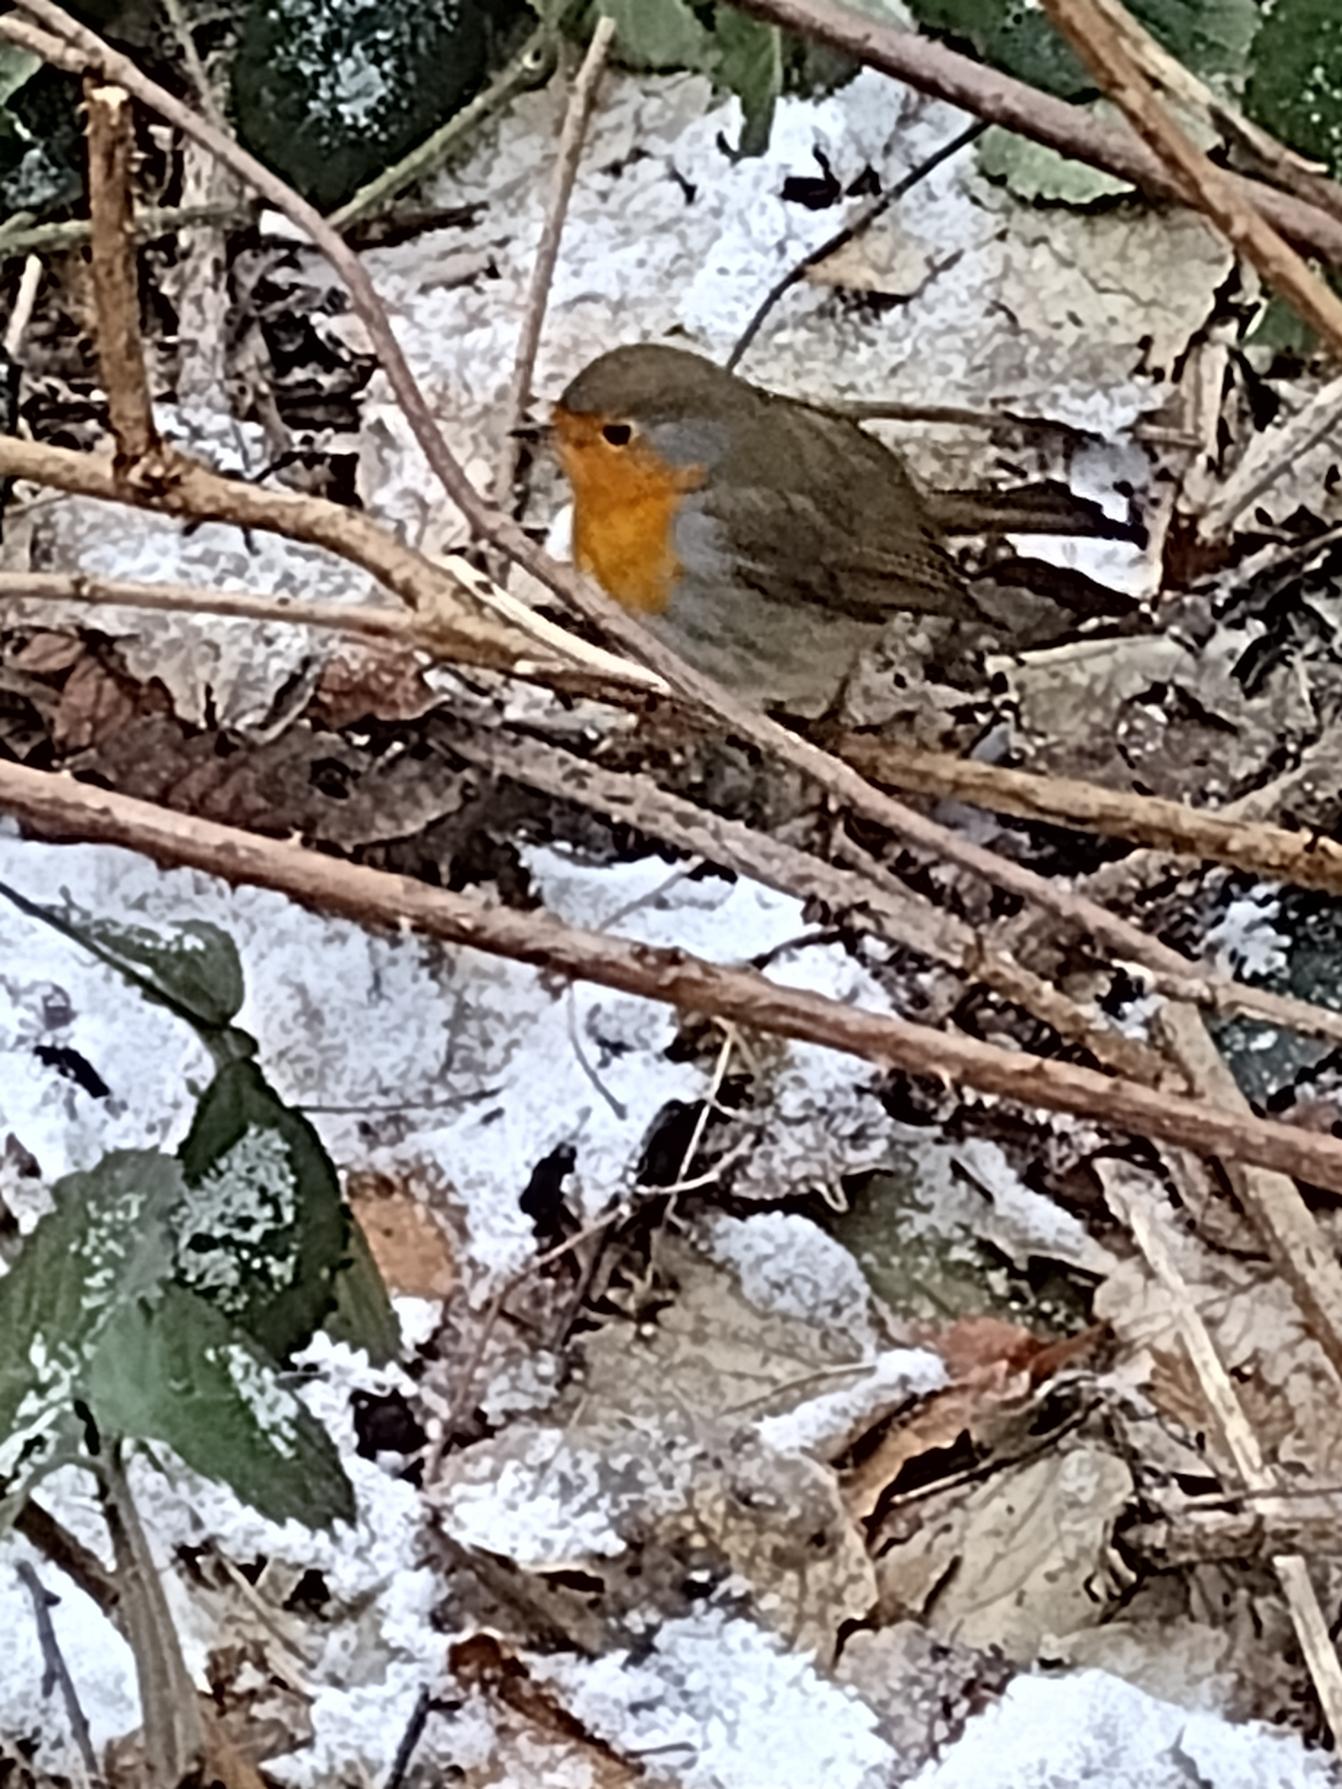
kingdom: Animalia
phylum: Chordata
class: Aves
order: Passeriformes
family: Muscicapidae
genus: Erithacus
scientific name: Erithacus rubecula
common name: Rødhals/rødkælk
